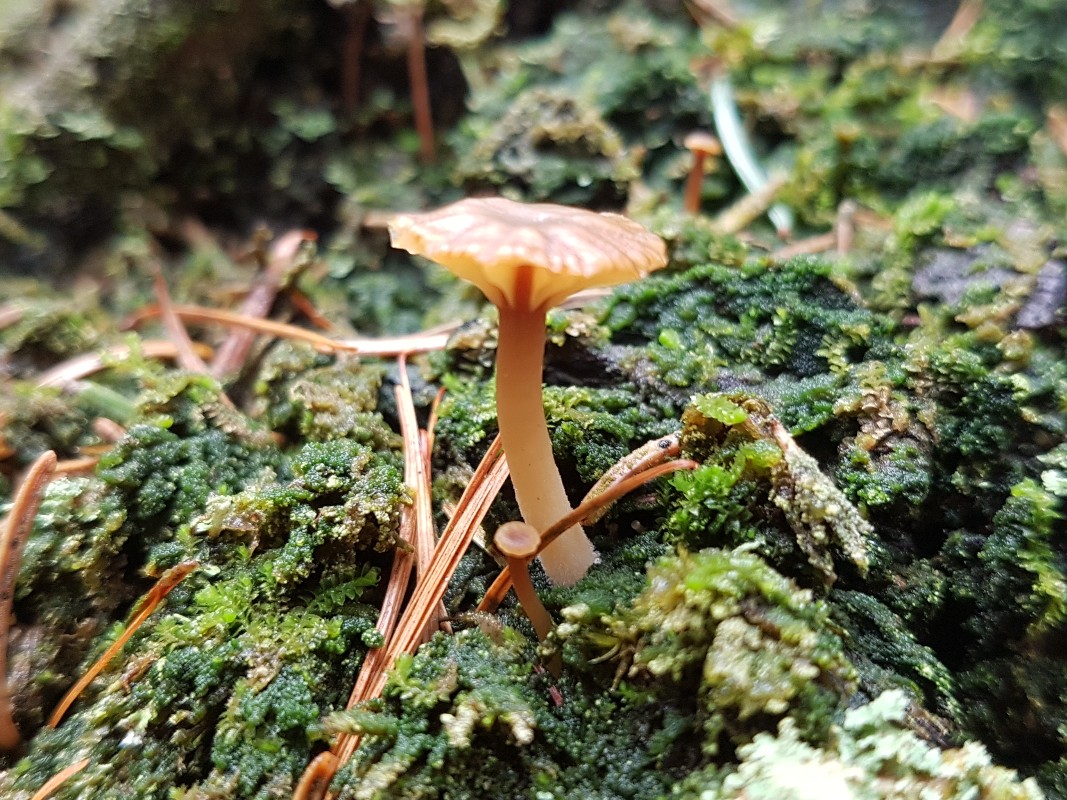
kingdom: Fungi
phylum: Basidiomycota
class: Agaricomycetes
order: Agaricales
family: Hygrophoraceae
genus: Lichenomphalia
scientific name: Lichenomphalia umbellifera
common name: tørve-lavhat
